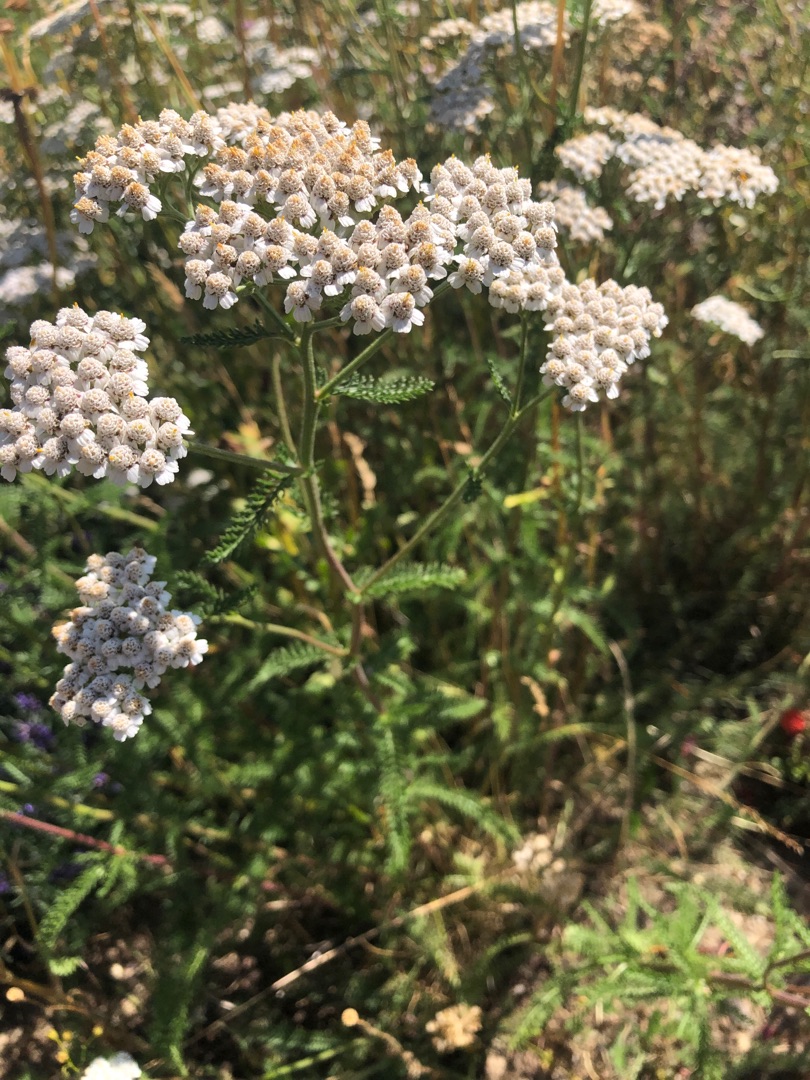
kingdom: Plantae
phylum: Tracheophyta
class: Magnoliopsida
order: Asterales
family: Asteraceae
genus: Achillea
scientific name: Achillea millefolium
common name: Almindelig røllike
